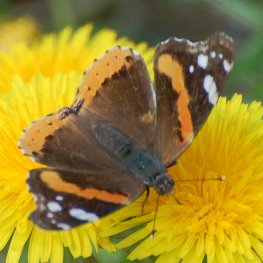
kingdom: Animalia
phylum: Arthropoda
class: Insecta
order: Lepidoptera
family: Nymphalidae
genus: Vanessa
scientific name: Vanessa atalanta
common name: Red Admiral
